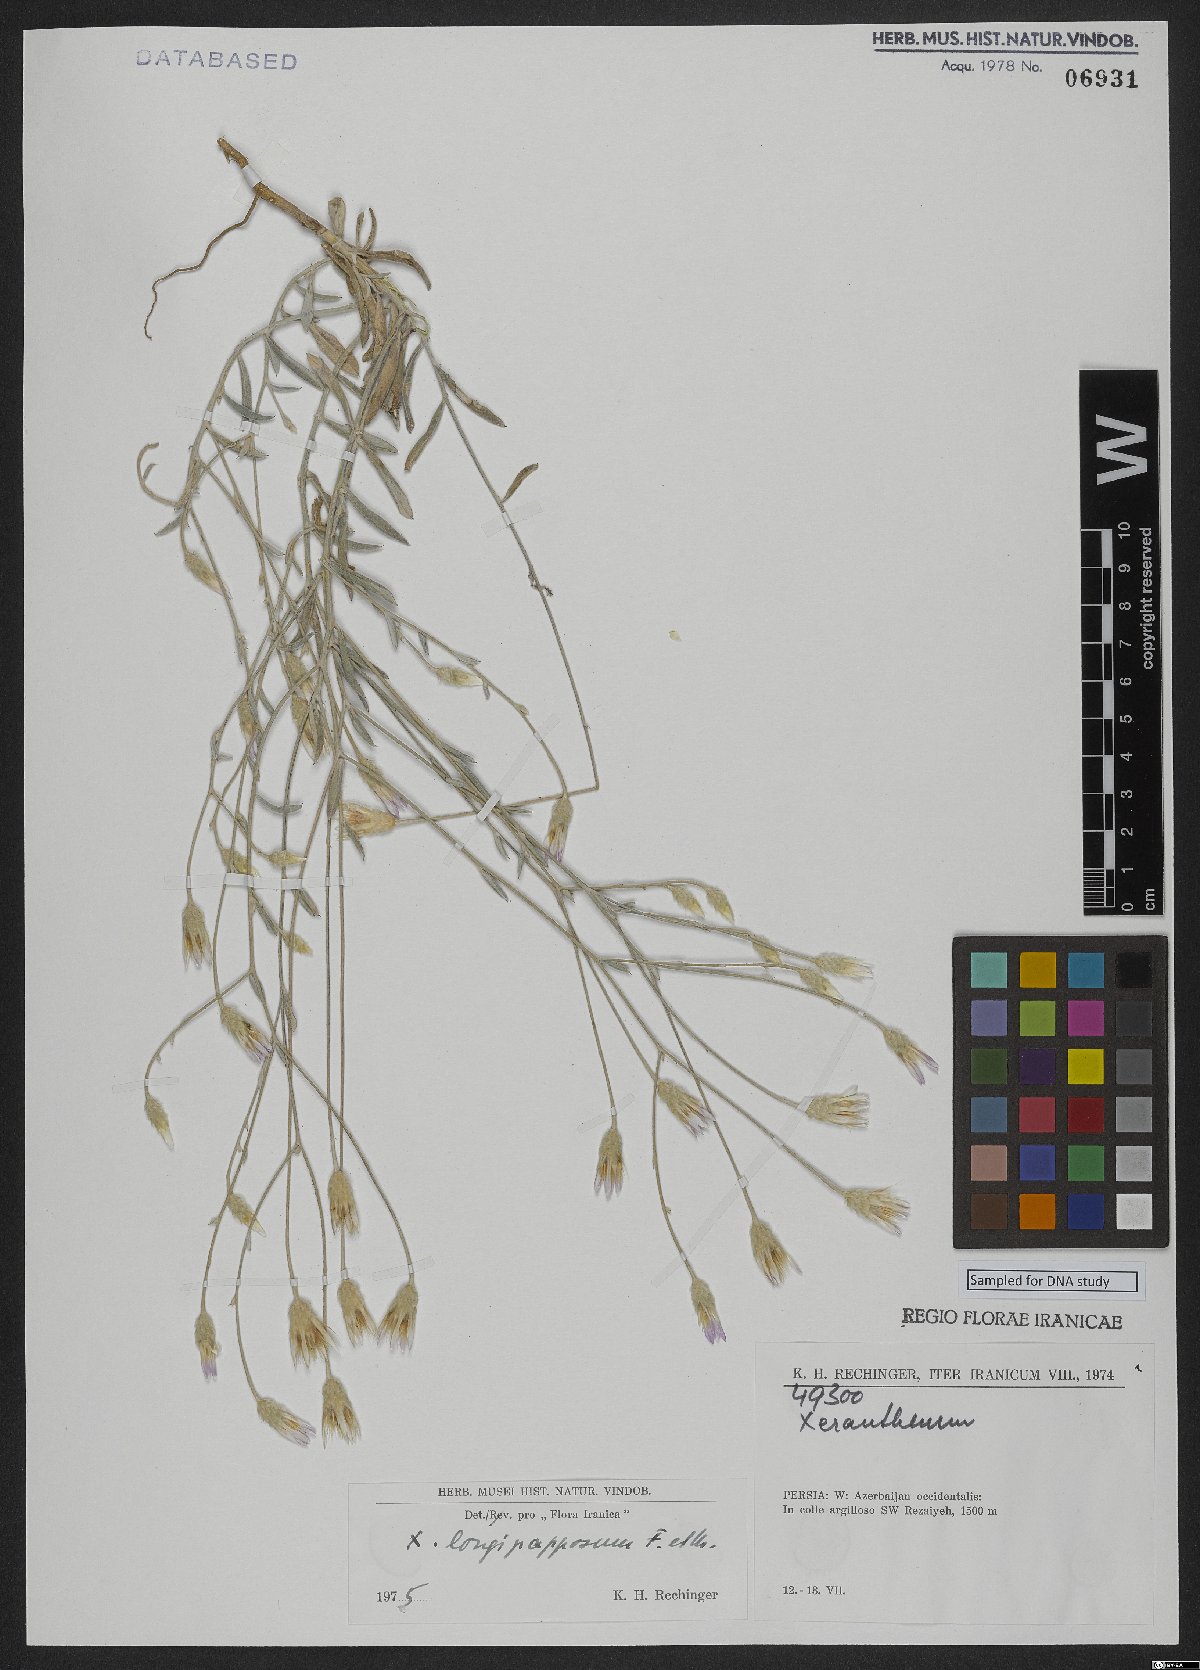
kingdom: Plantae
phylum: Tracheophyta
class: Magnoliopsida
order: Asterales
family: Asteraceae
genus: Xeranthemum
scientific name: Xeranthemum longepapposum
